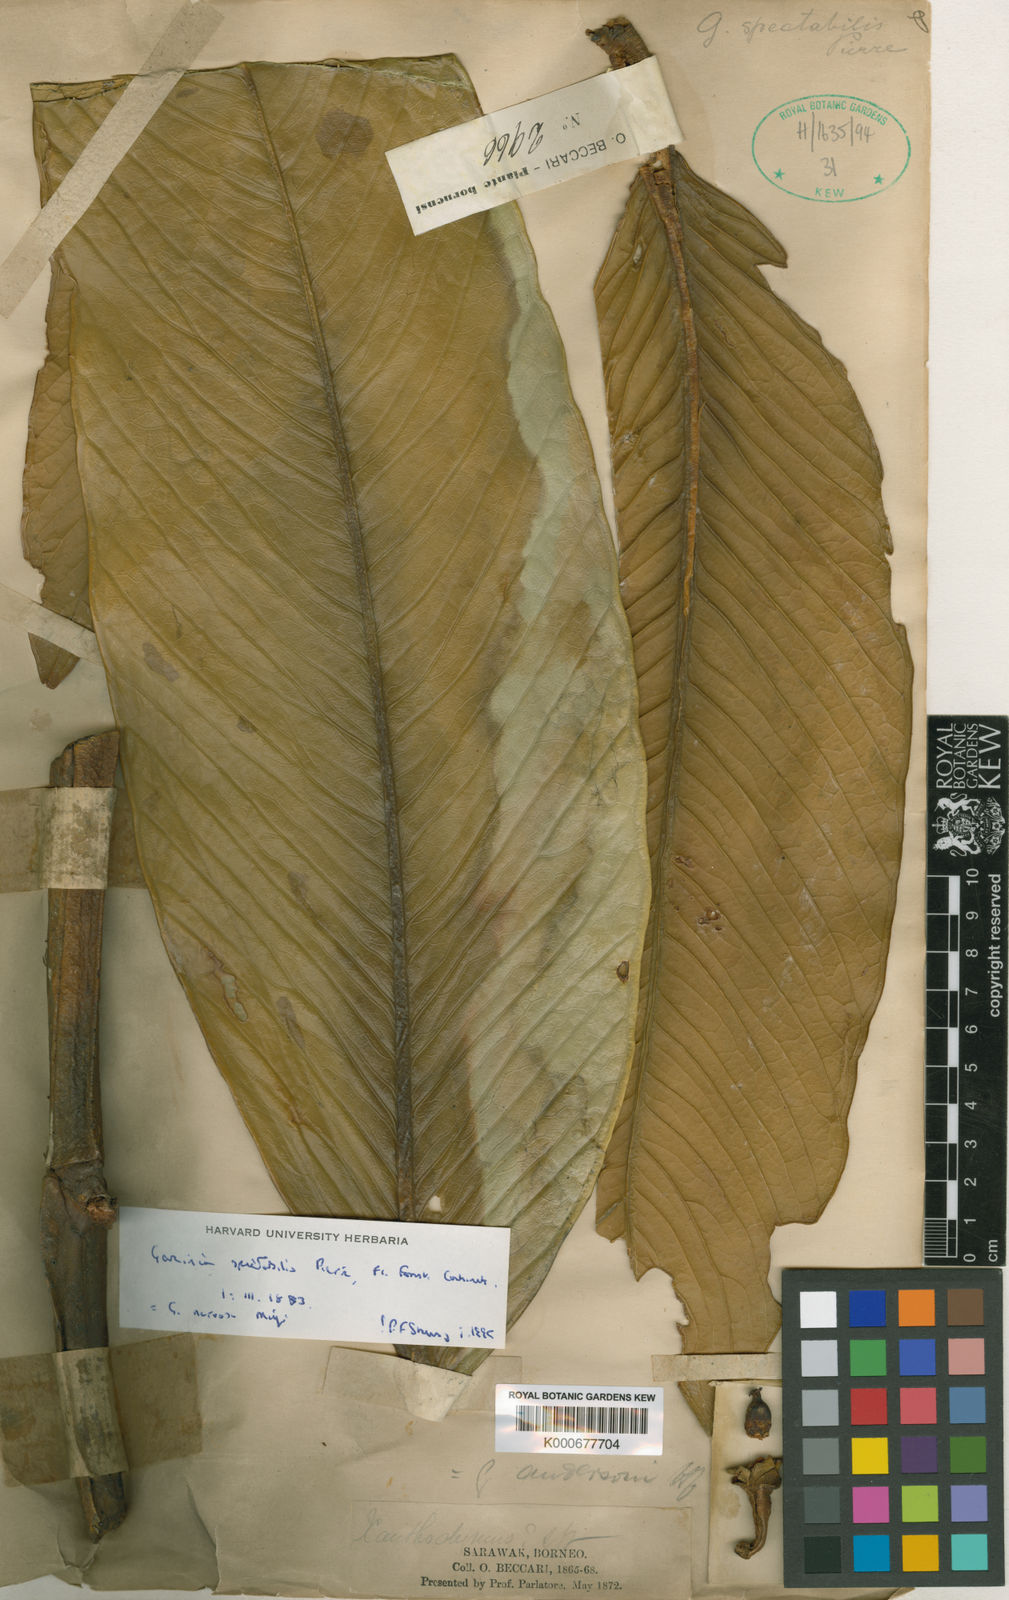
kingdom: Plantae
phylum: Tracheophyta
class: Magnoliopsida
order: Malpighiales
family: Clusiaceae
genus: Garcinia
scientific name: Garcinia spectabilis
